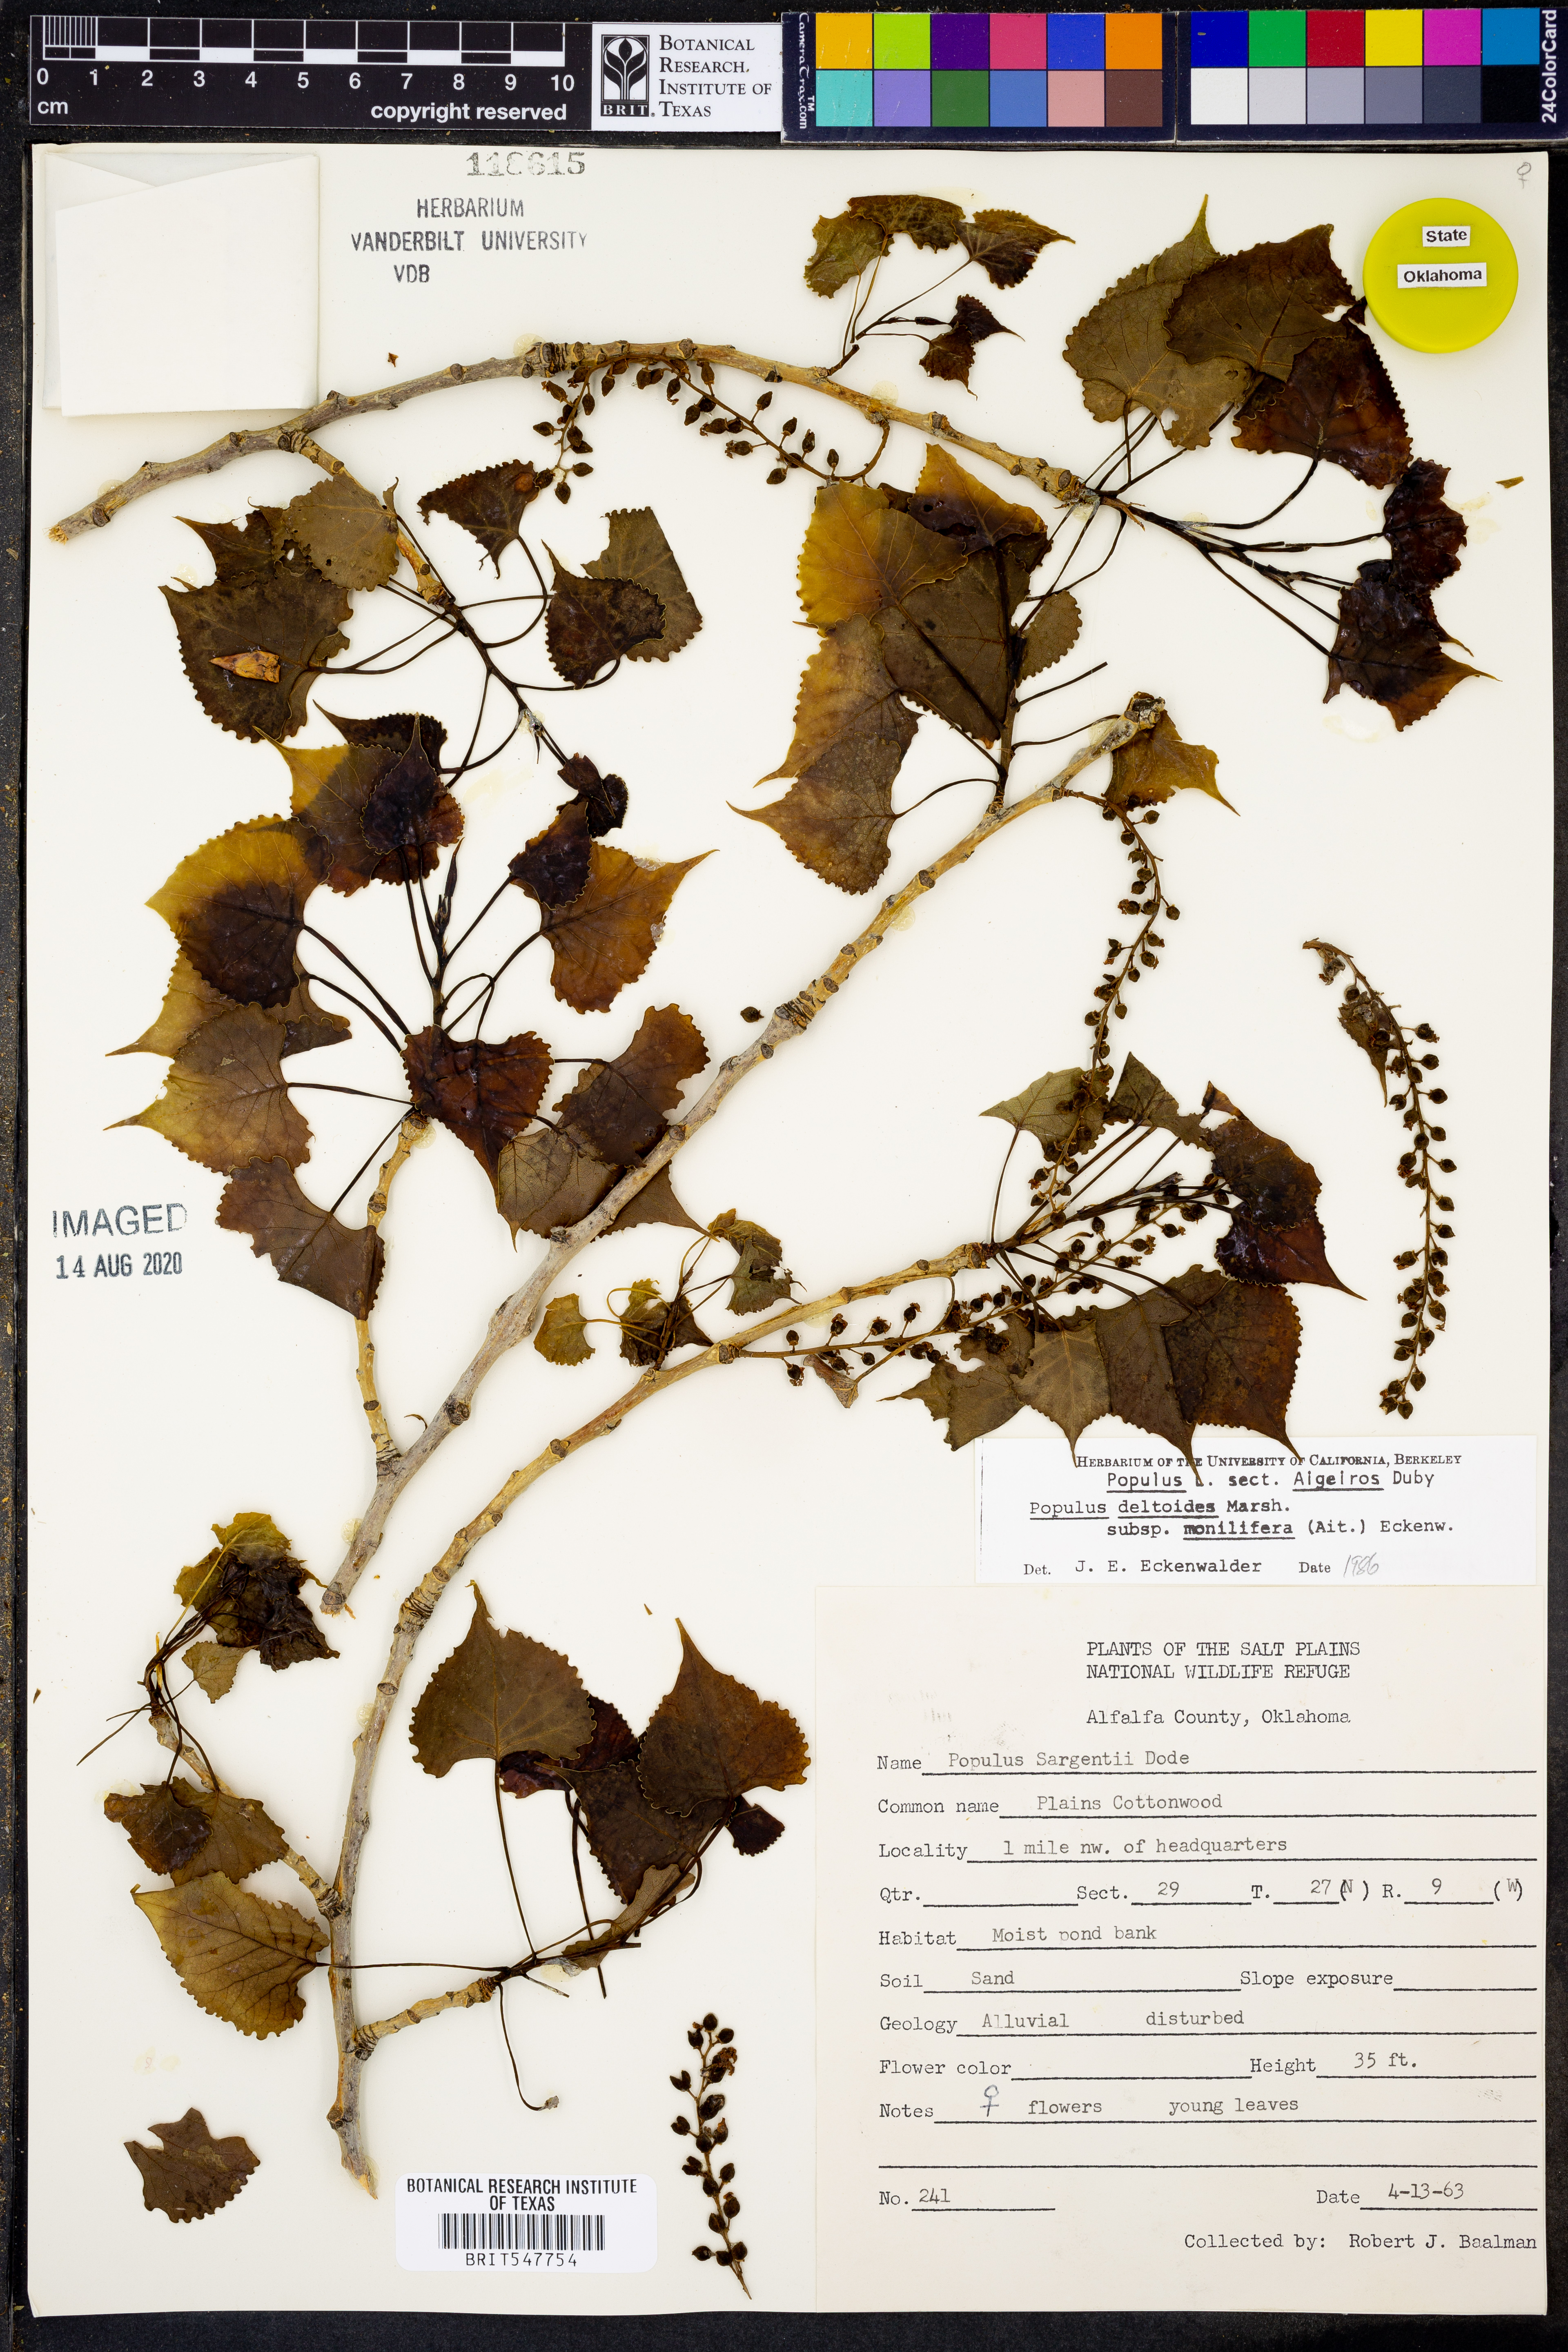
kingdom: Plantae
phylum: Tracheophyta
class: Magnoliopsida
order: Malpighiales
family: Salicaceae
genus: Populus
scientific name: Populus deltoides
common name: Eastern cottonwood
